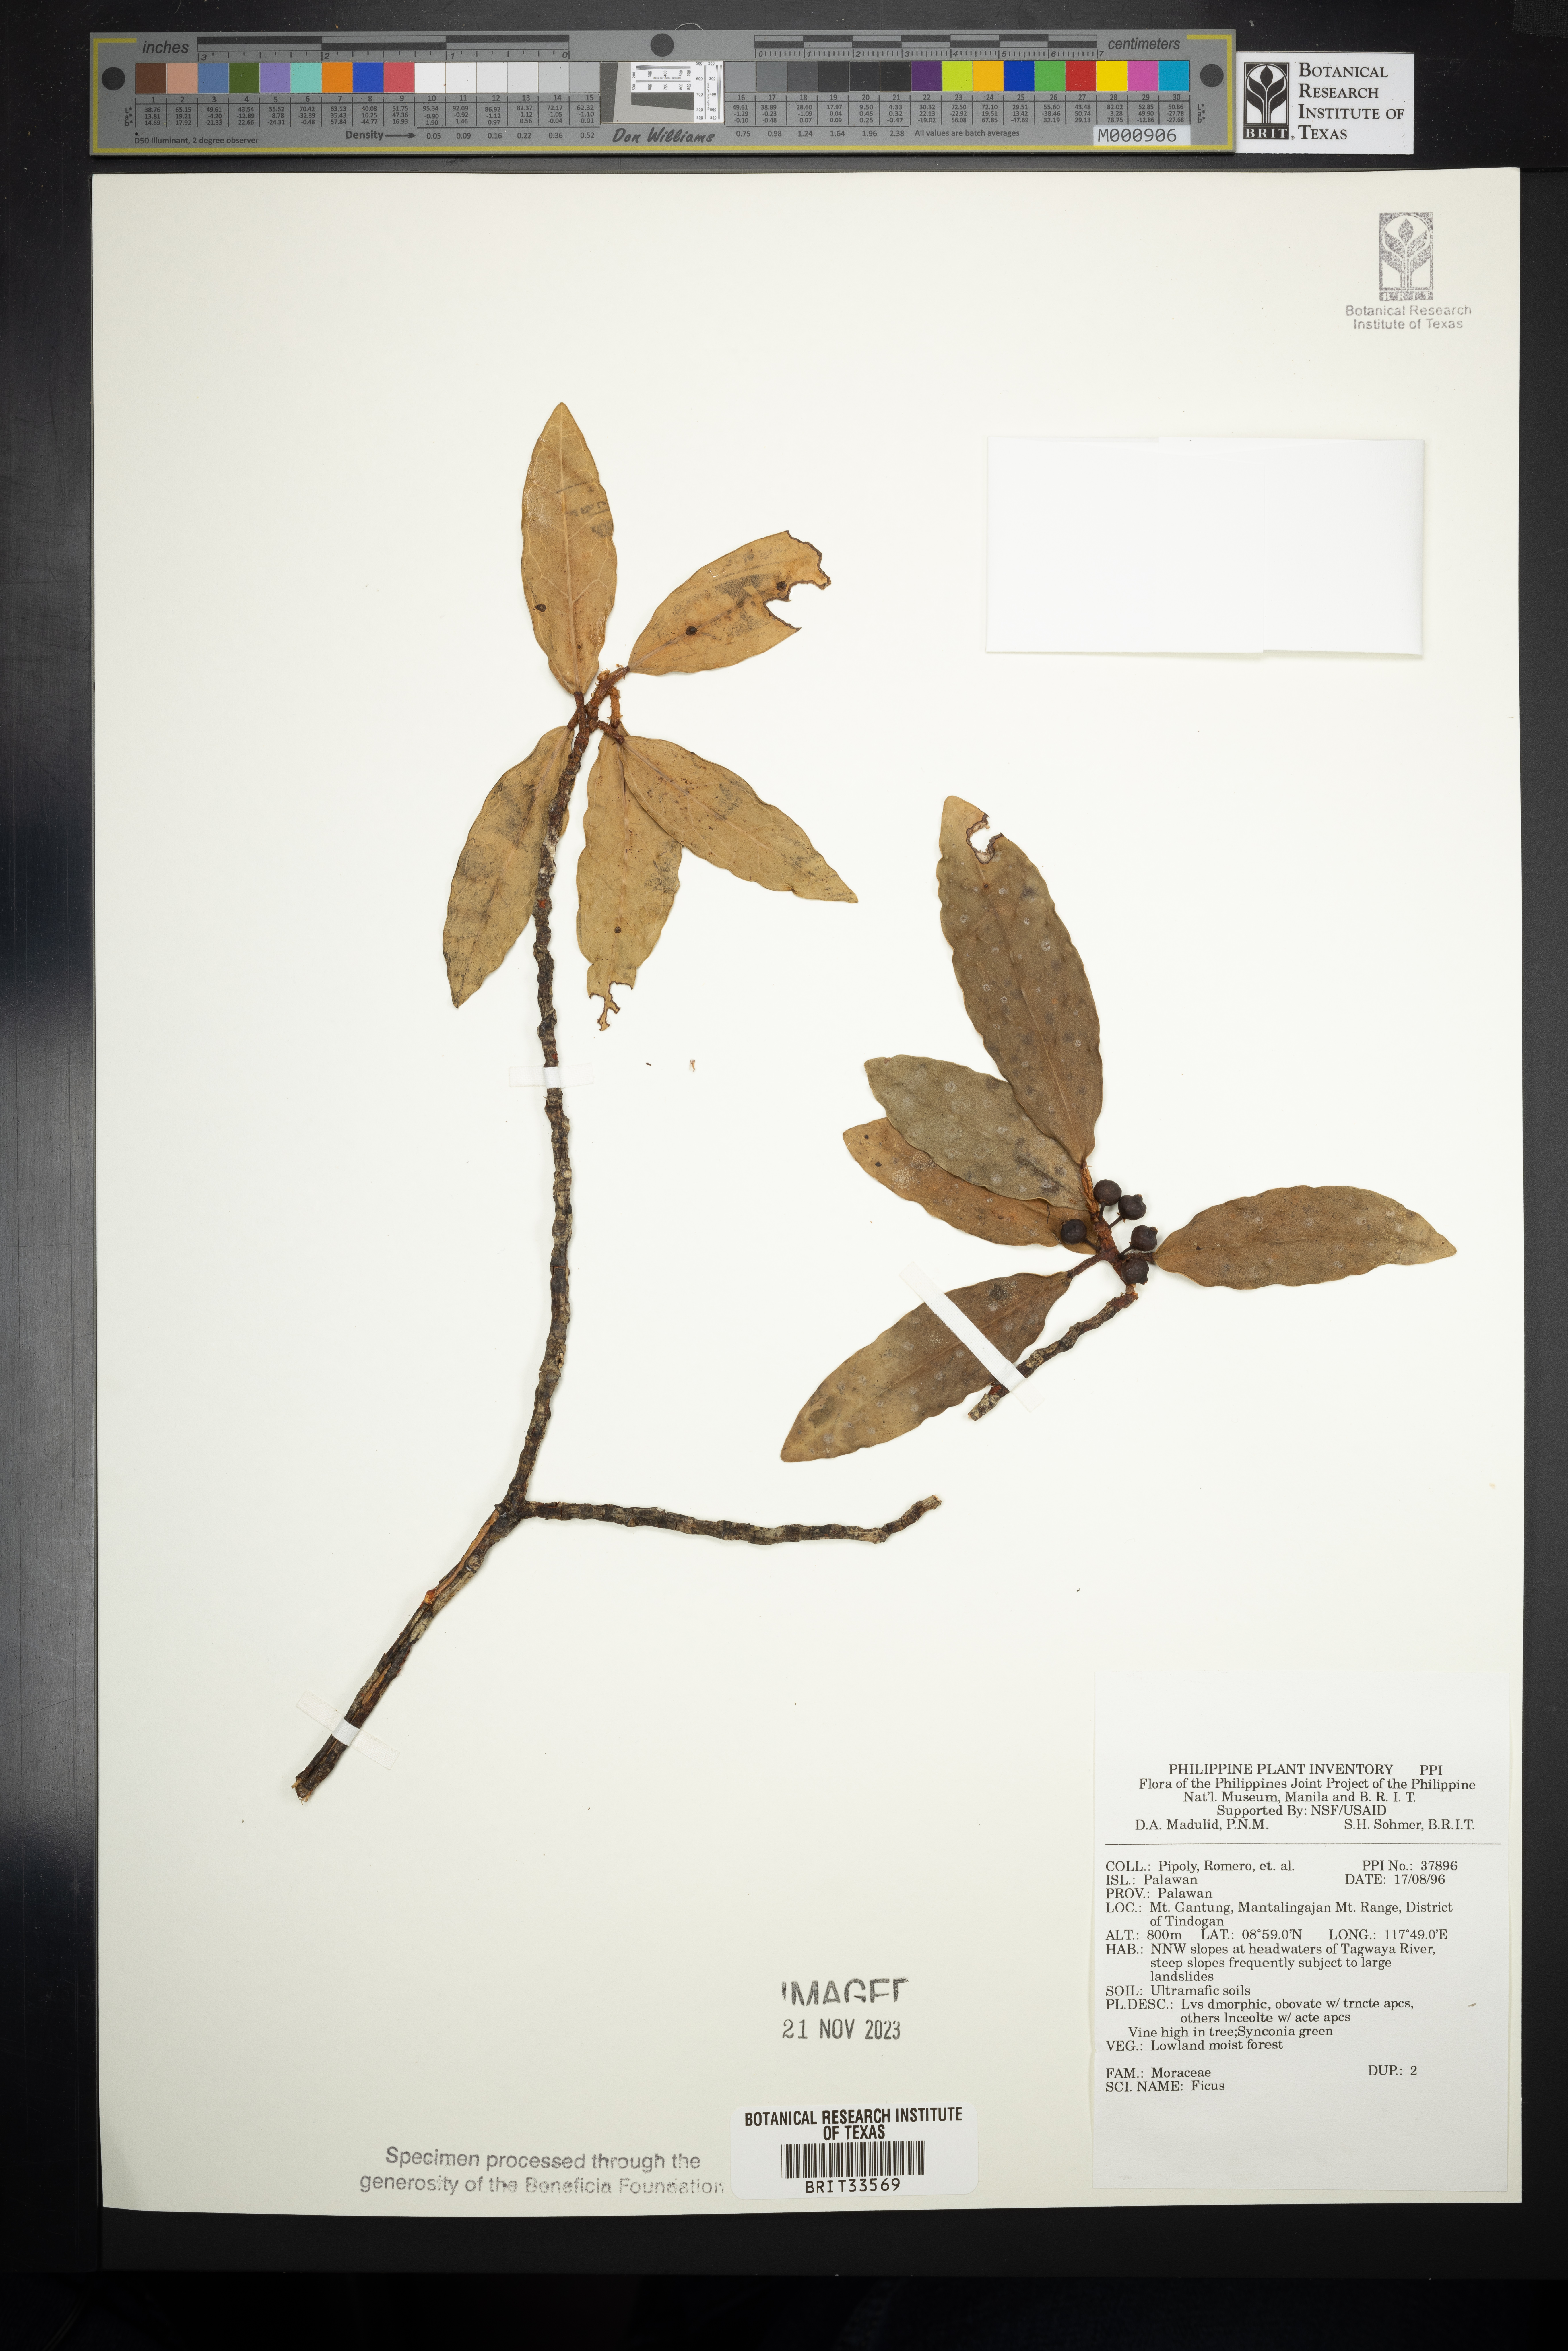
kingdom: Plantae
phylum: Tracheophyta
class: Magnoliopsida
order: Rosales
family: Moraceae
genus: Ficus
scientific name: Ficus
